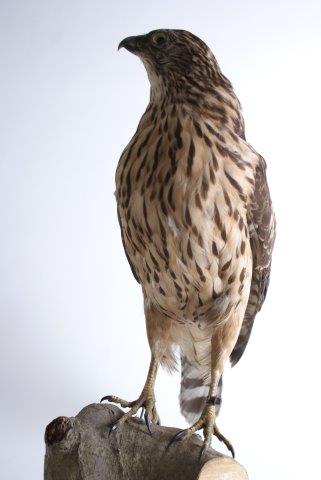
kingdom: Animalia
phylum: Chordata
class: Aves
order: Accipitriformes
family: Accipitridae
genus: Accipiter
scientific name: Accipiter gentilis
